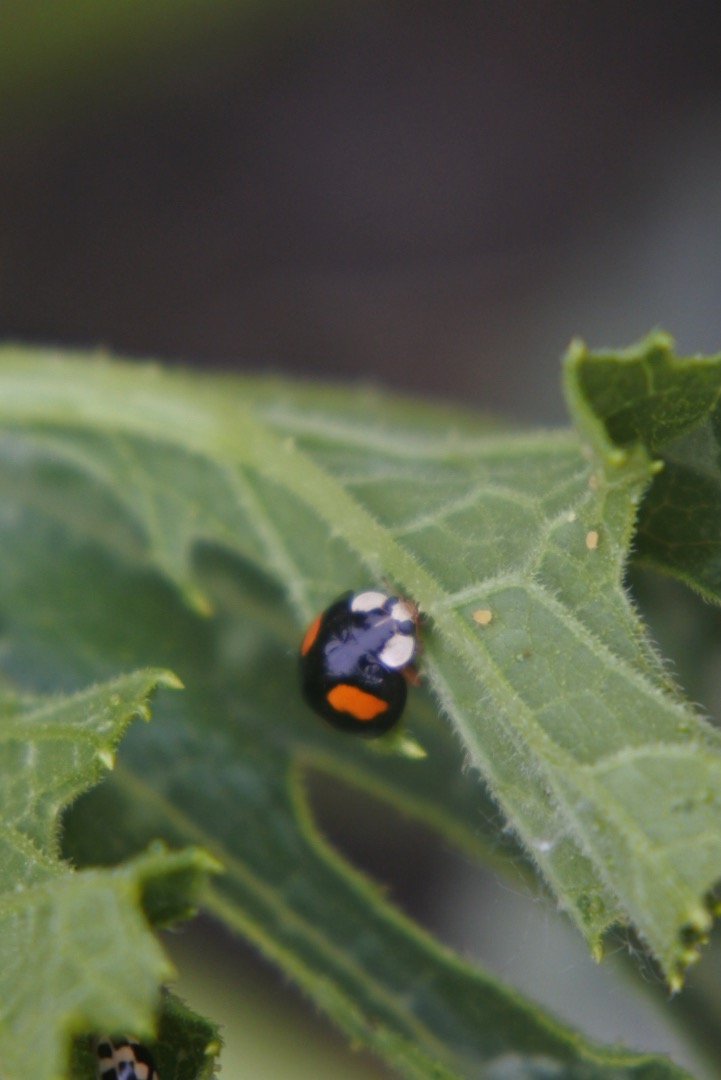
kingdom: Animalia
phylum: Arthropoda
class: Insecta
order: Coleoptera
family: Coccinellidae
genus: Harmonia
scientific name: Harmonia axyridis
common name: Harlekinmariehøne
